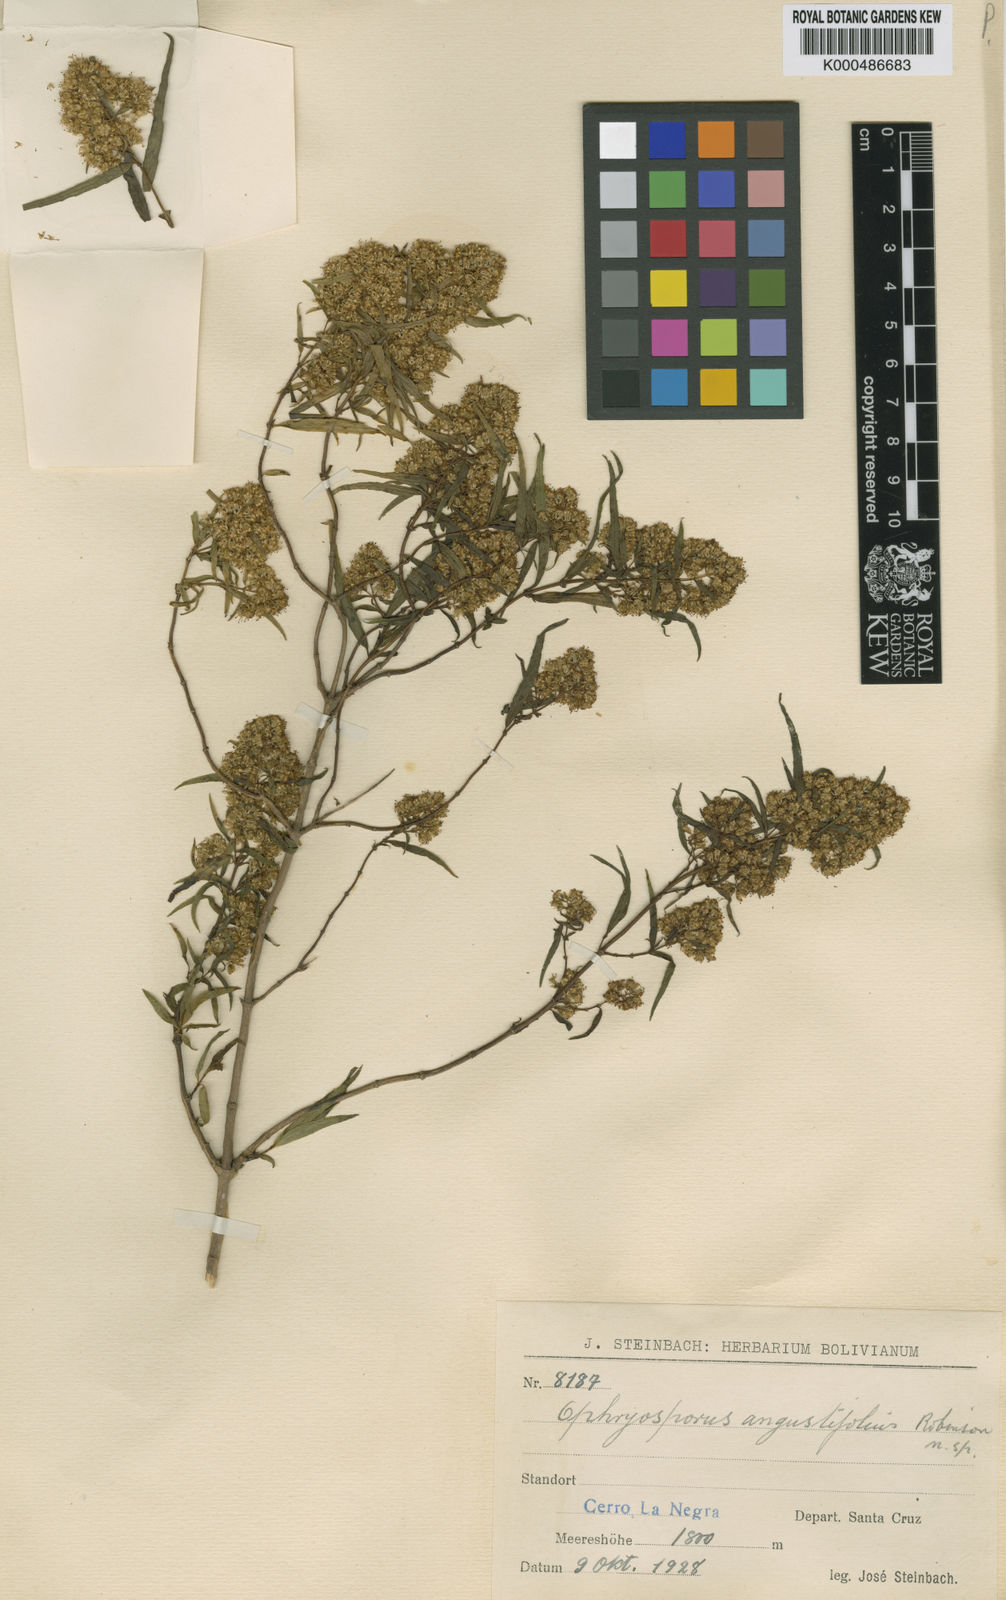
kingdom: Plantae
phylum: Tracheophyta
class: Magnoliopsida
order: Asterales
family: Asteraceae
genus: Ophryosporus
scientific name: Ophryosporus angustifolius
